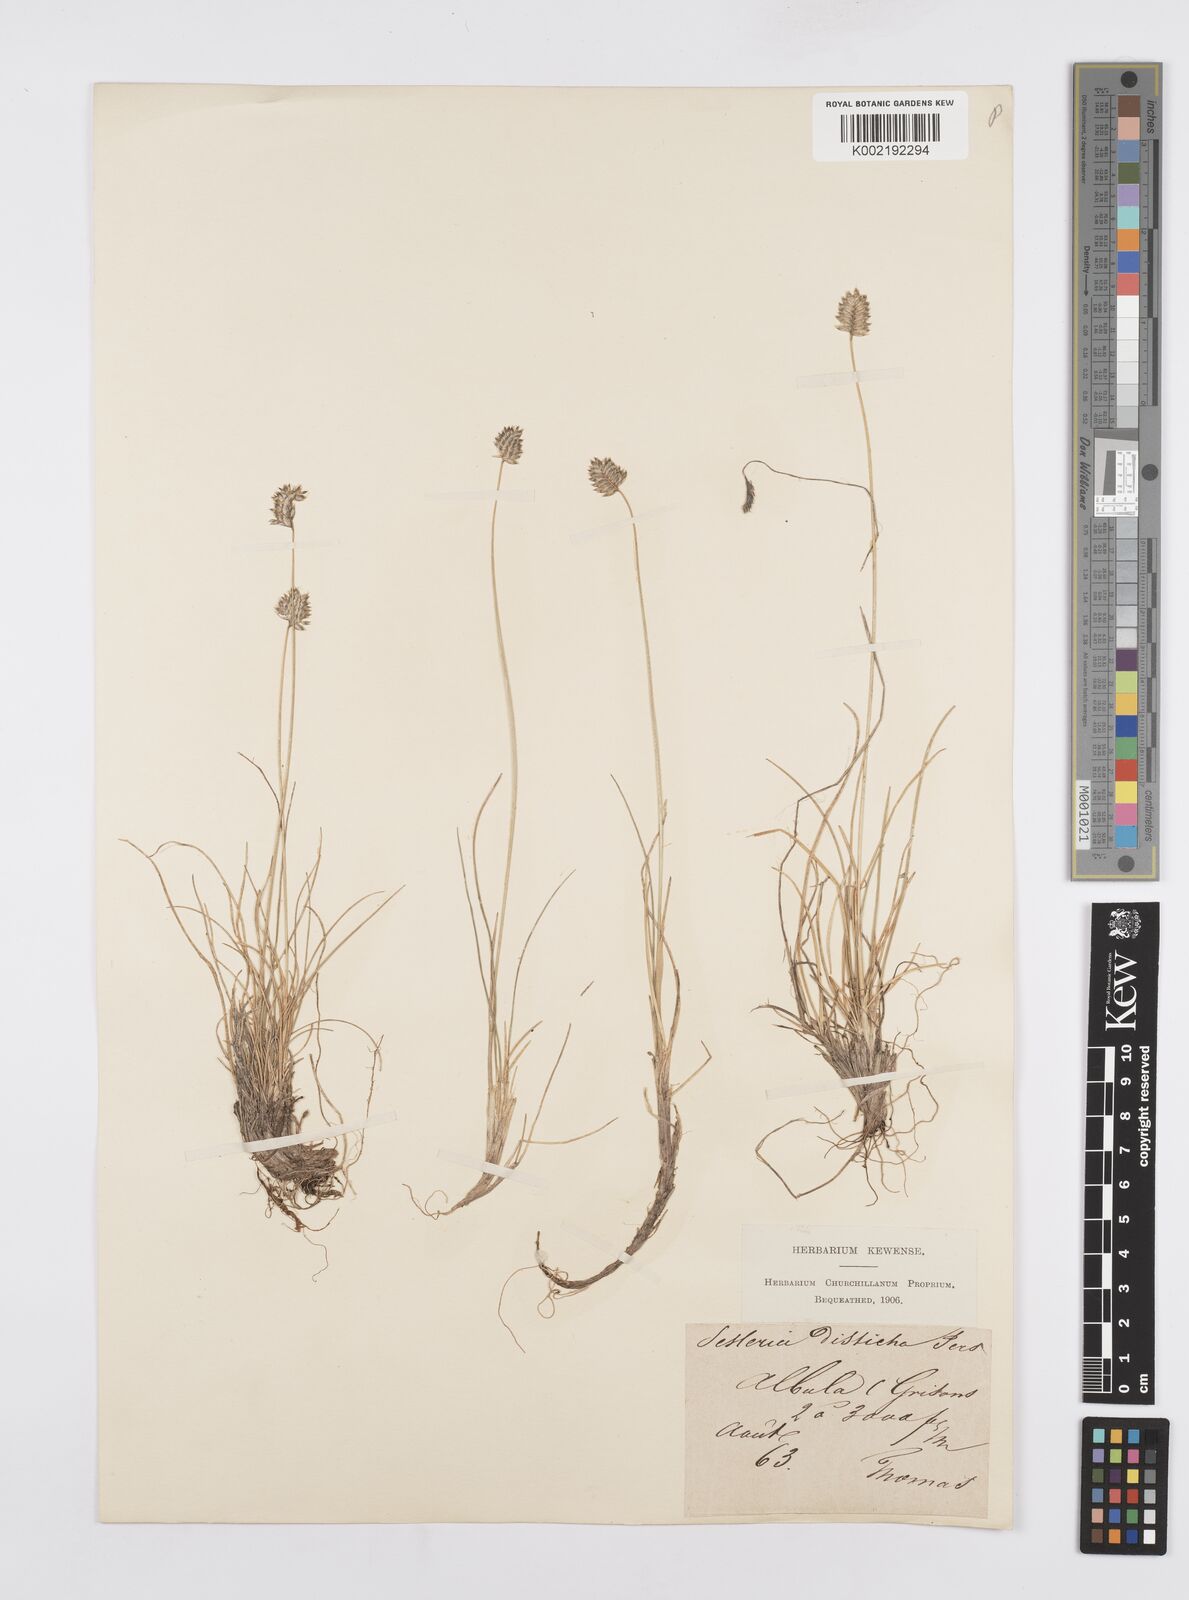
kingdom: Plantae
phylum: Tracheophyta
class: Liliopsida
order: Poales
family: Poaceae
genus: Oreochloa
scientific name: Oreochloa disticha
